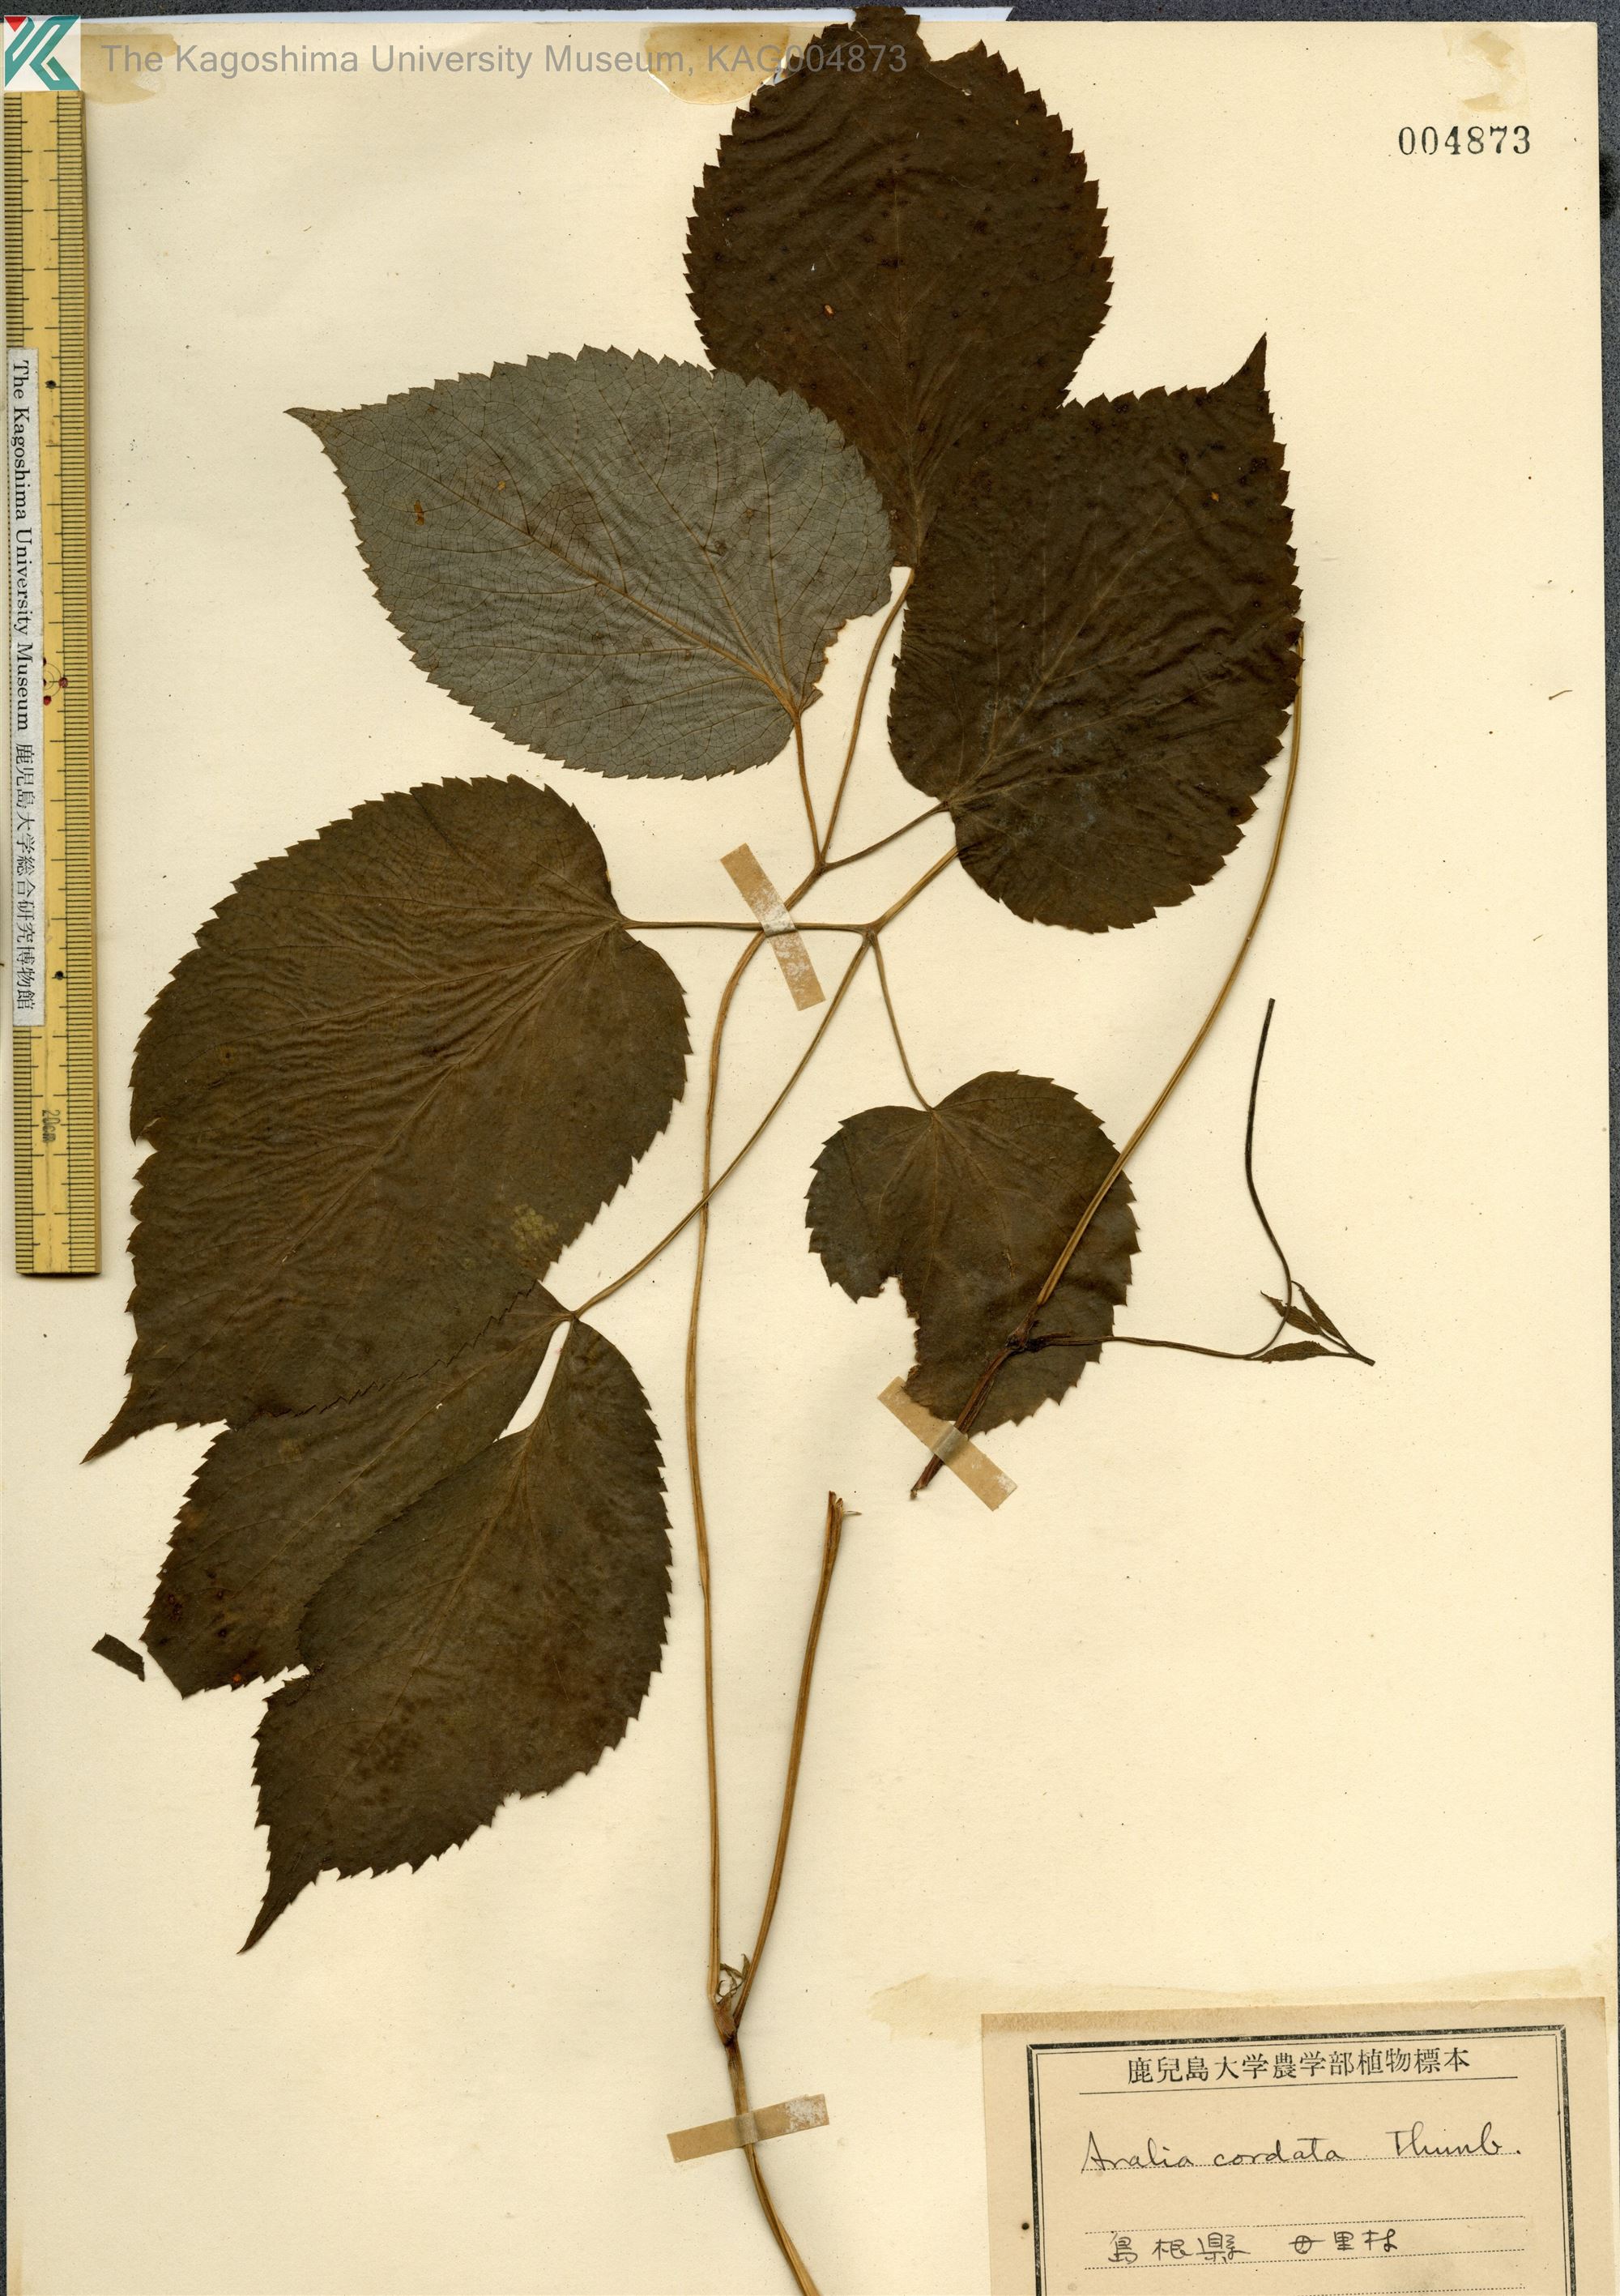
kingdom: Plantae
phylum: Tracheophyta
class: Magnoliopsida
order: Apiales
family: Araliaceae
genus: Aralia
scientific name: Aralia cordata
